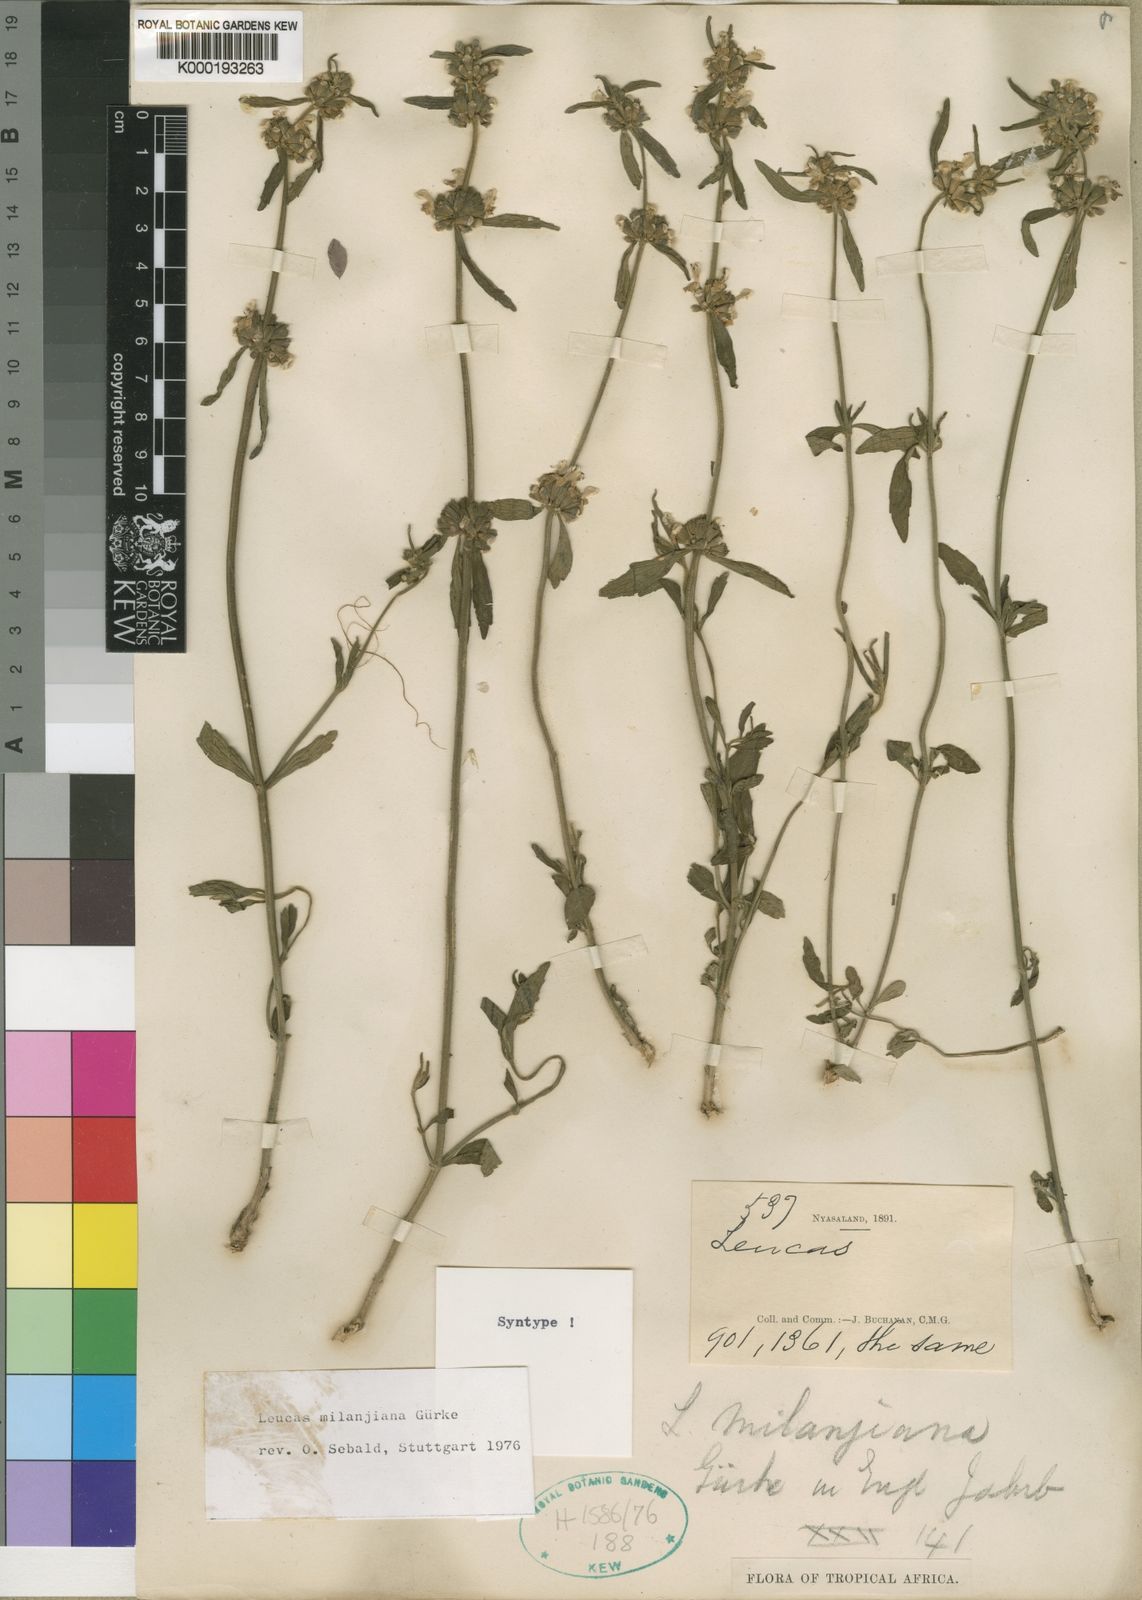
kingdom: Plantae
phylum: Tracheophyta
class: Magnoliopsida
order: Lamiales
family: Lamiaceae
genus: Leucas
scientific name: Leucas
